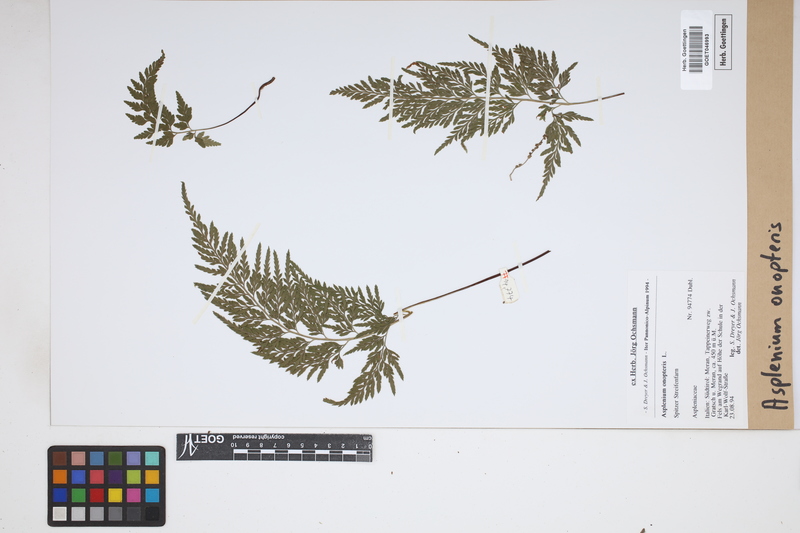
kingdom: Plantae
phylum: Tracheophyta
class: Polypodiopsida
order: Polypodiales
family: Aspleniaceae
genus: Asplenium
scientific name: Asplenium onopteris
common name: Irish spleenwort
